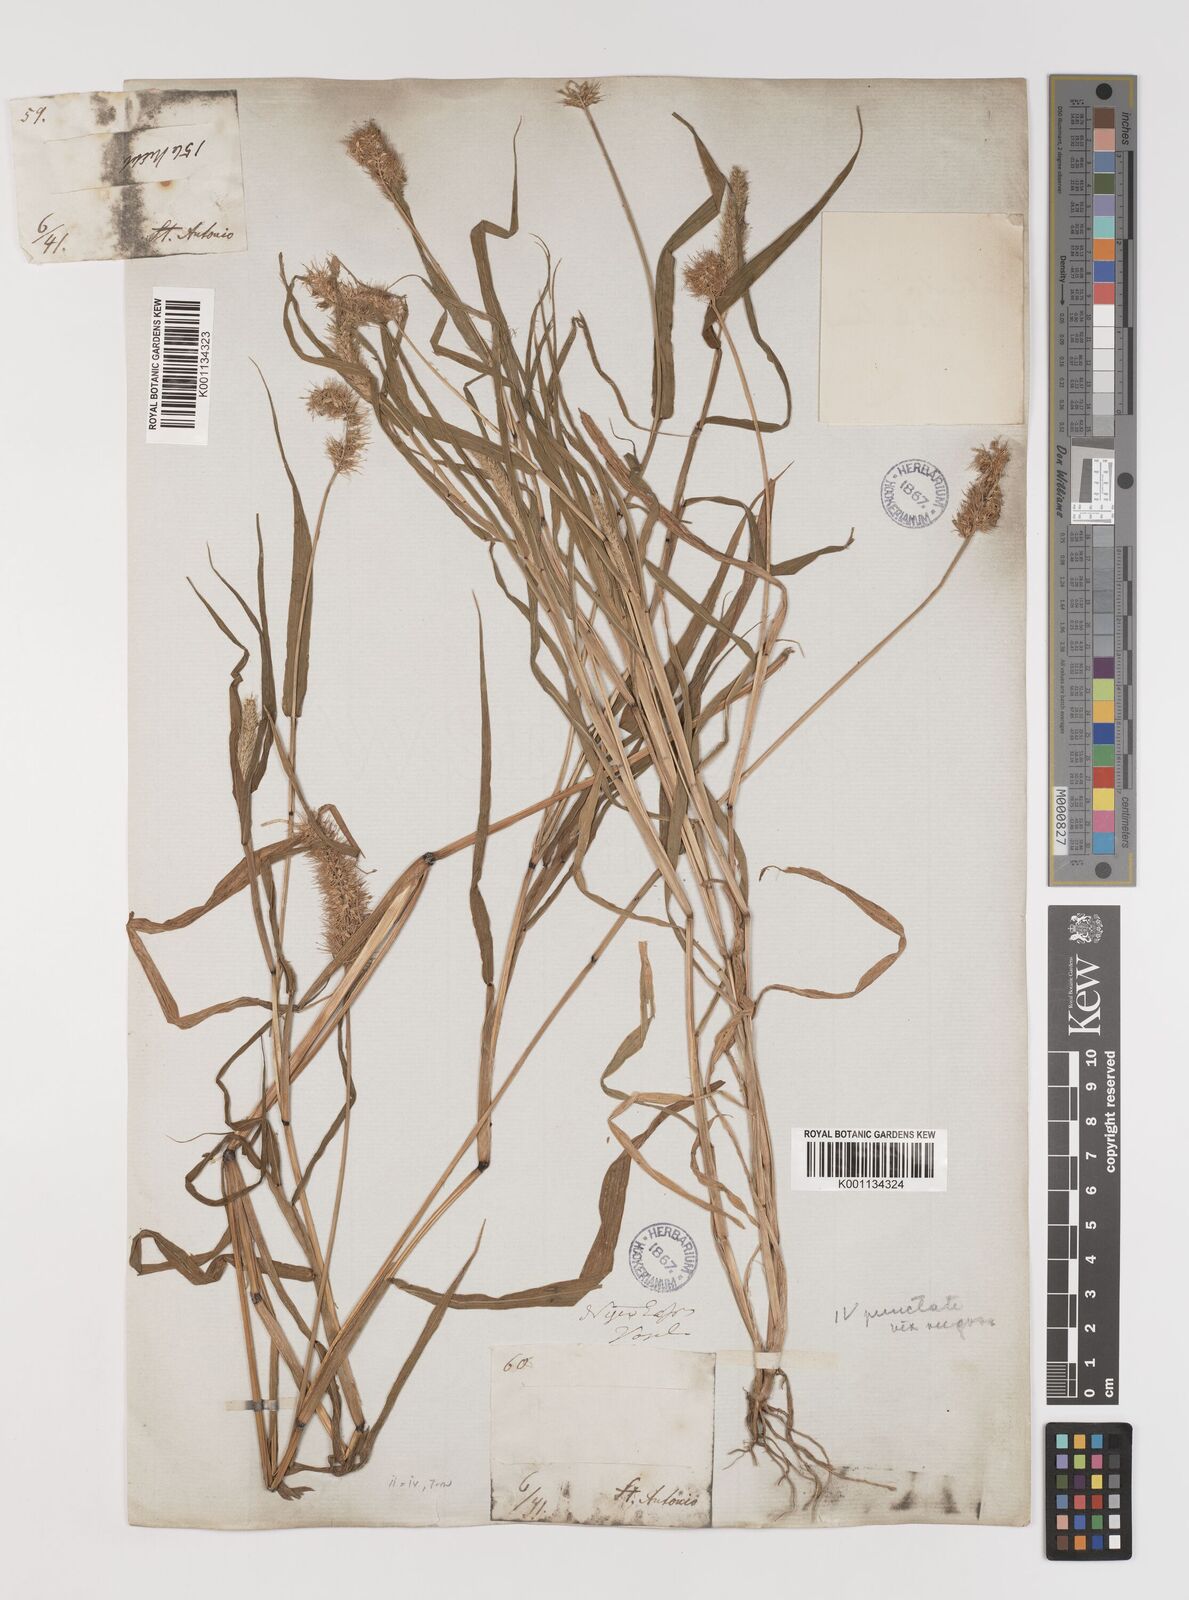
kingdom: Plantae
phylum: Tracheophyta
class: Liliopsida
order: Poales
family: Poaceae
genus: Setaria
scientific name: Setaria verticillata
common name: Hooked bristlegrass
